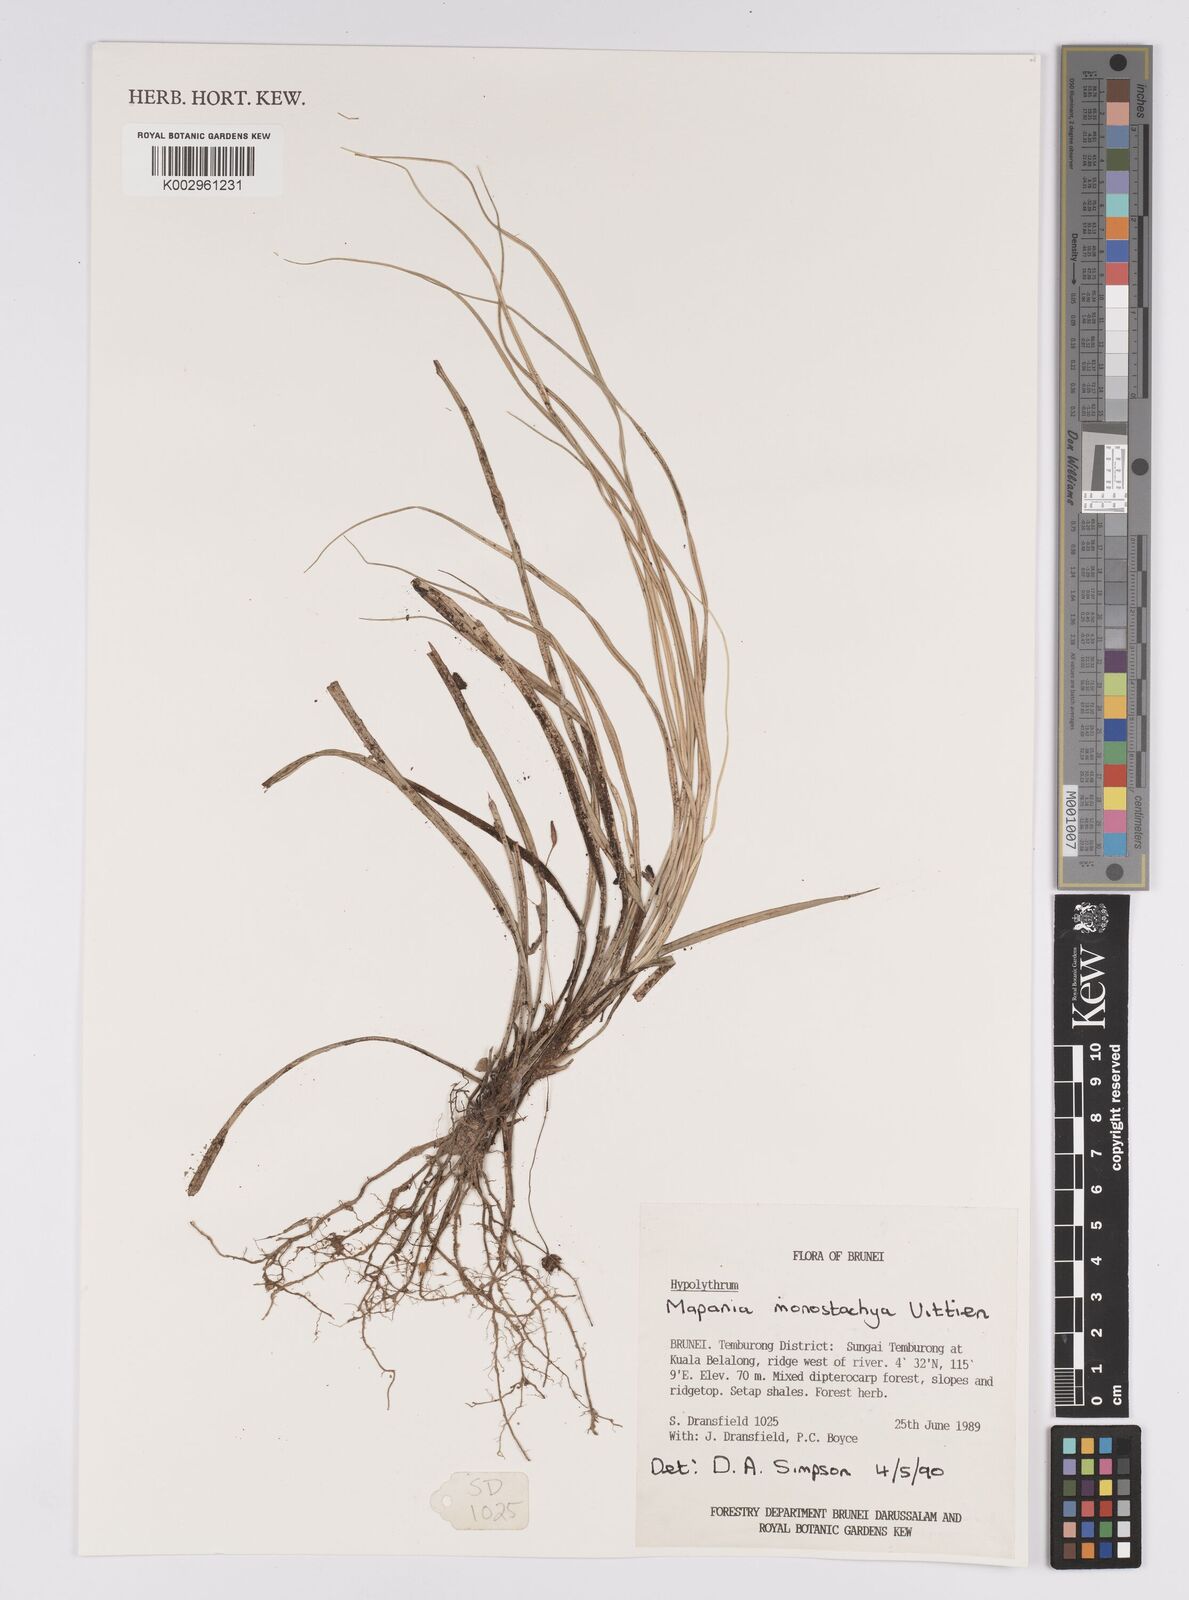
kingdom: Plantae
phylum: Tracheophyta
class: Liliopsida
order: Poales
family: Cyperaceae
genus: Mapania
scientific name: Mapania monostachya
